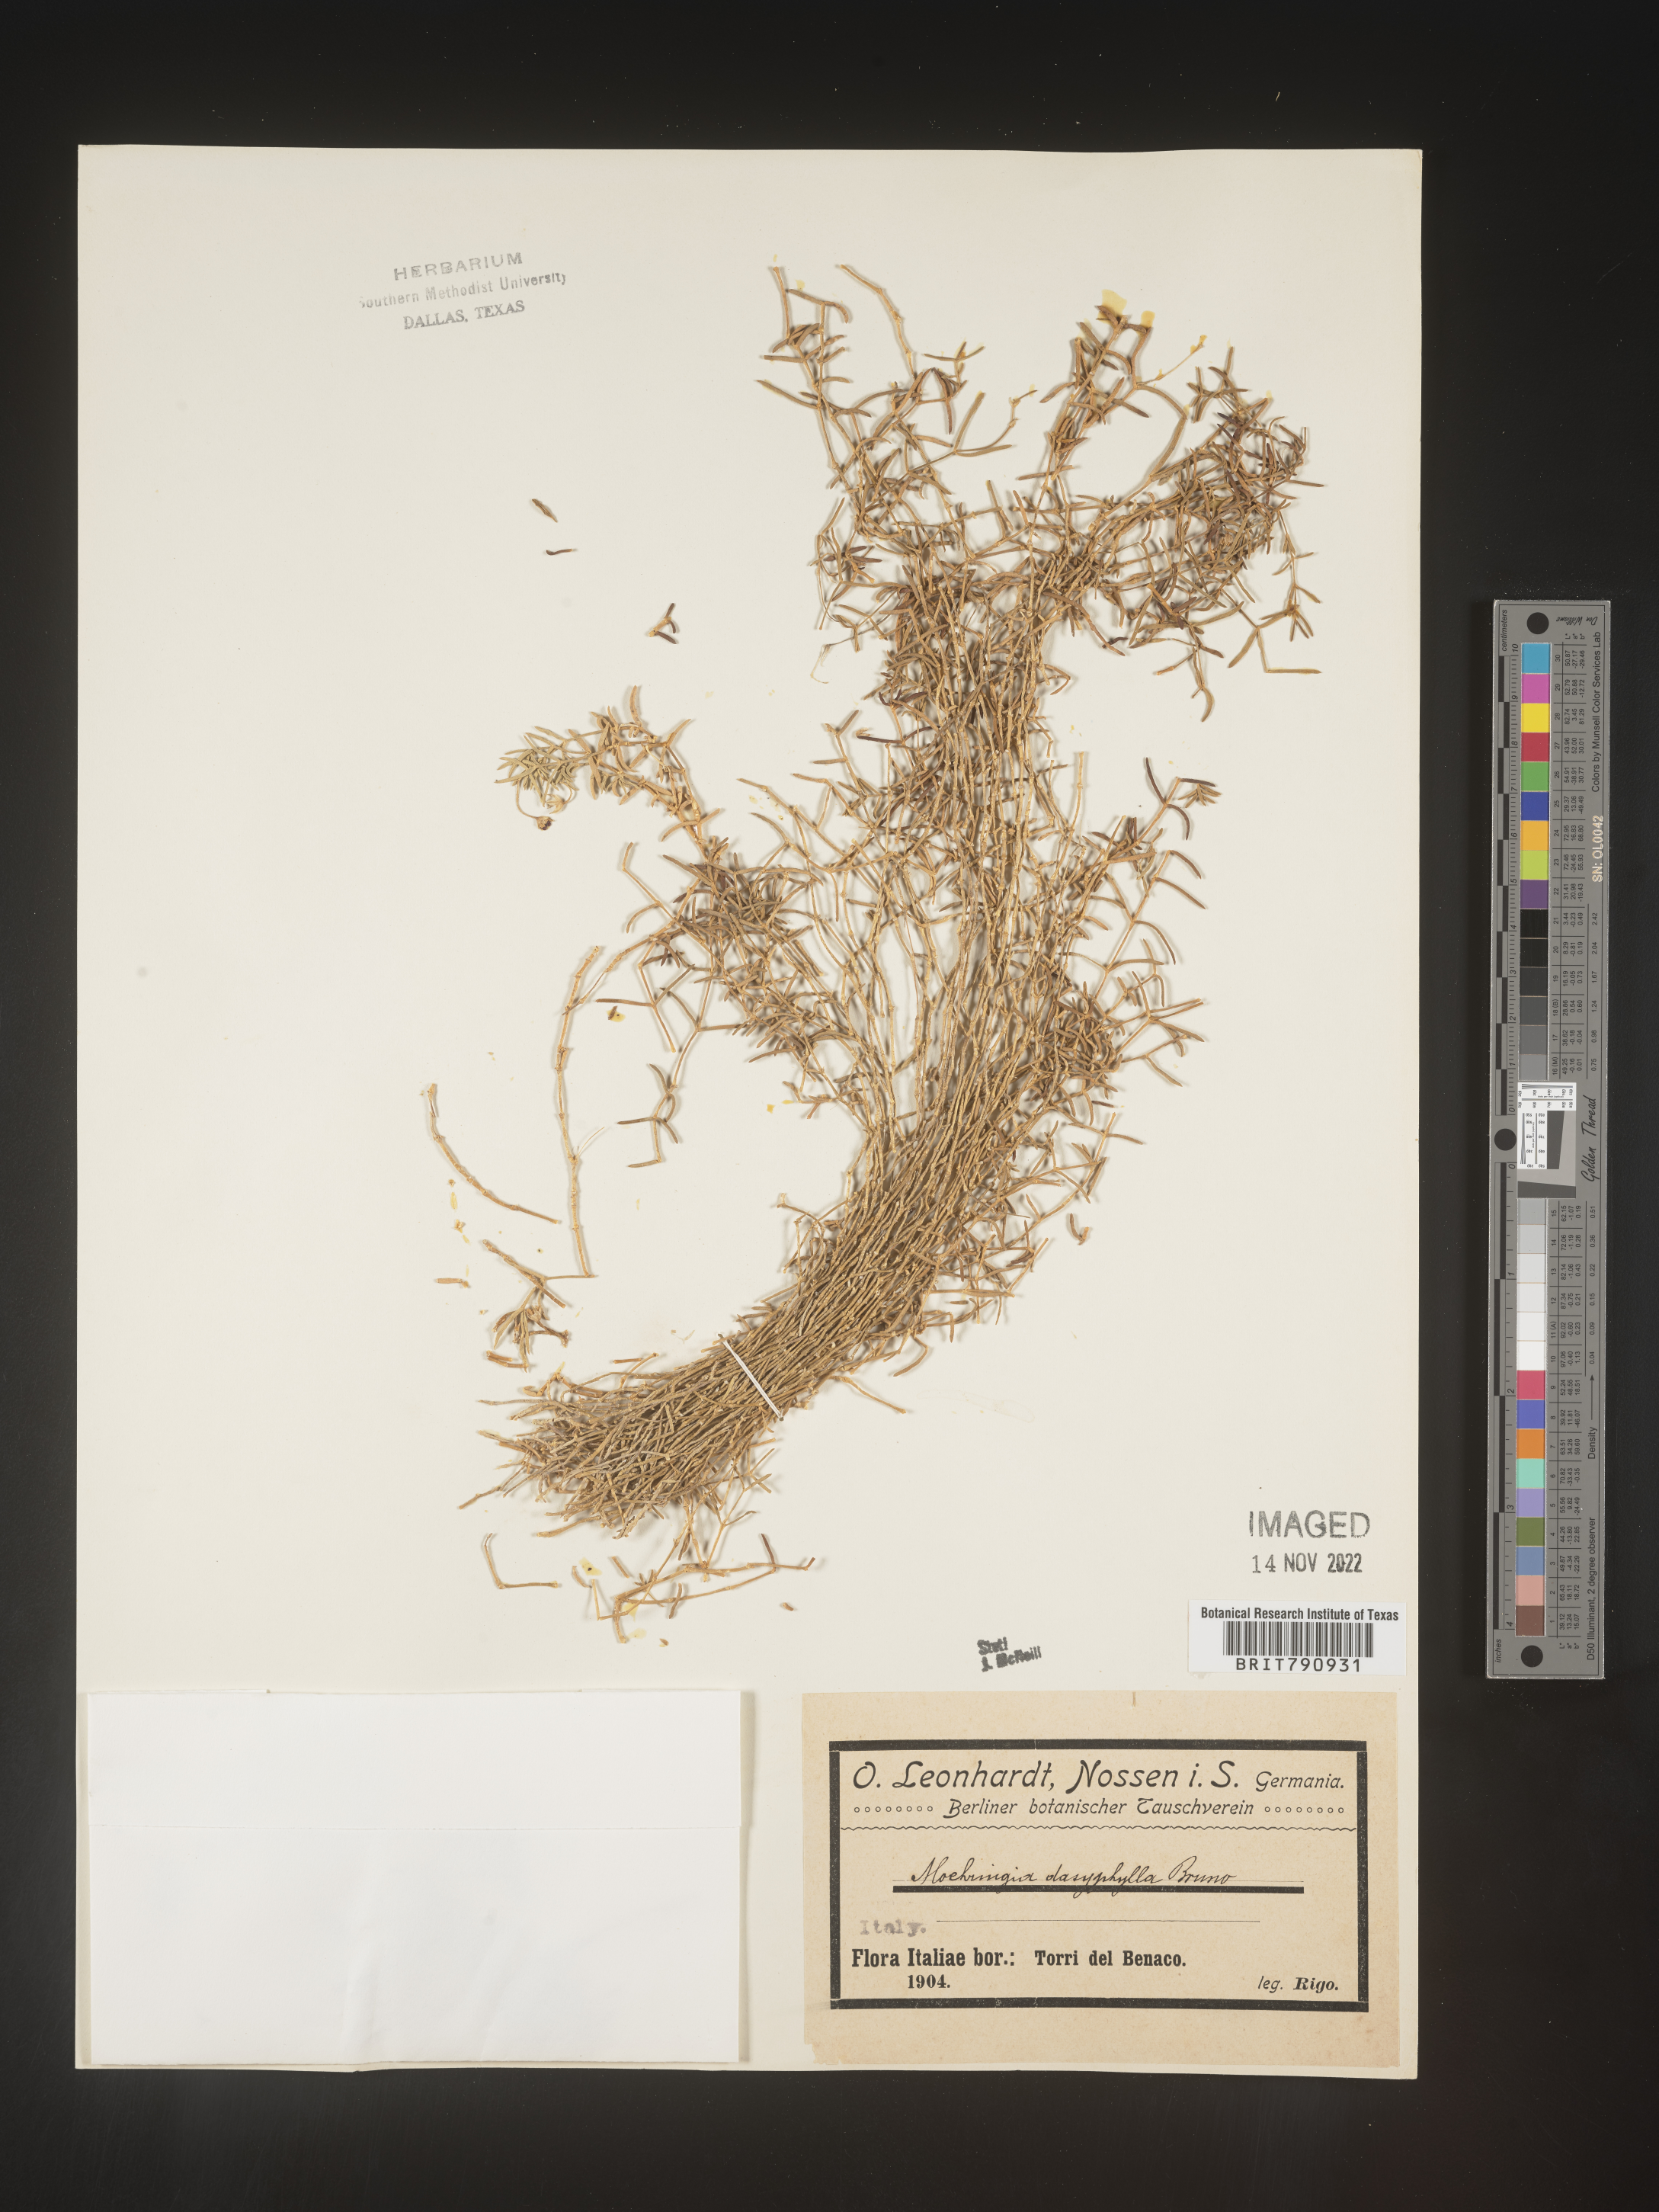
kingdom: Plantae
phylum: Tracheophyta
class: Magnoliopsida
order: Caryophyllales
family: Caryophyllaceae
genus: Moehringia
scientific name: Moehringia
